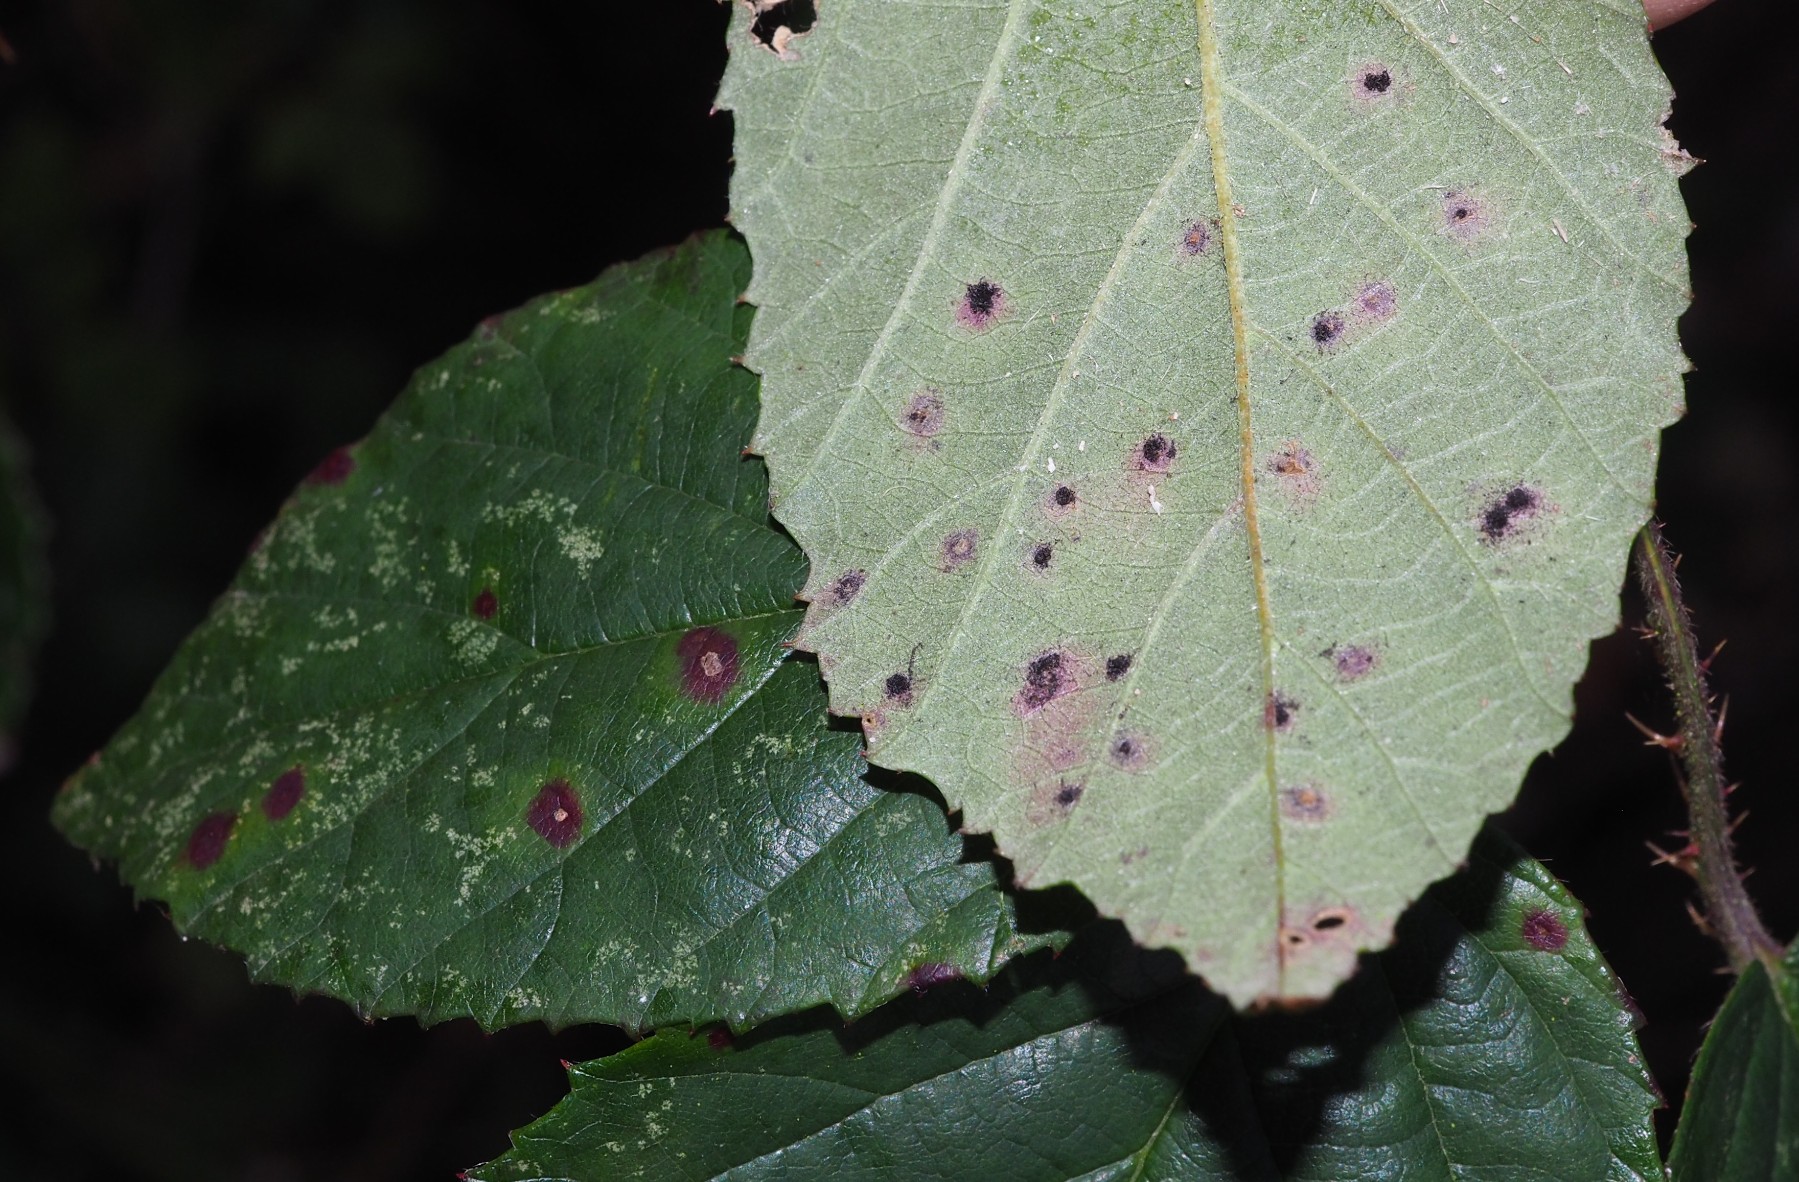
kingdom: Fungi
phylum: Basidiomycota
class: Pucciniomycetes
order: Pucciniales
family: Phragmidiaceae
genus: Phragmidium
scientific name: Phragmidium violaceum
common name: violet flercellerust
